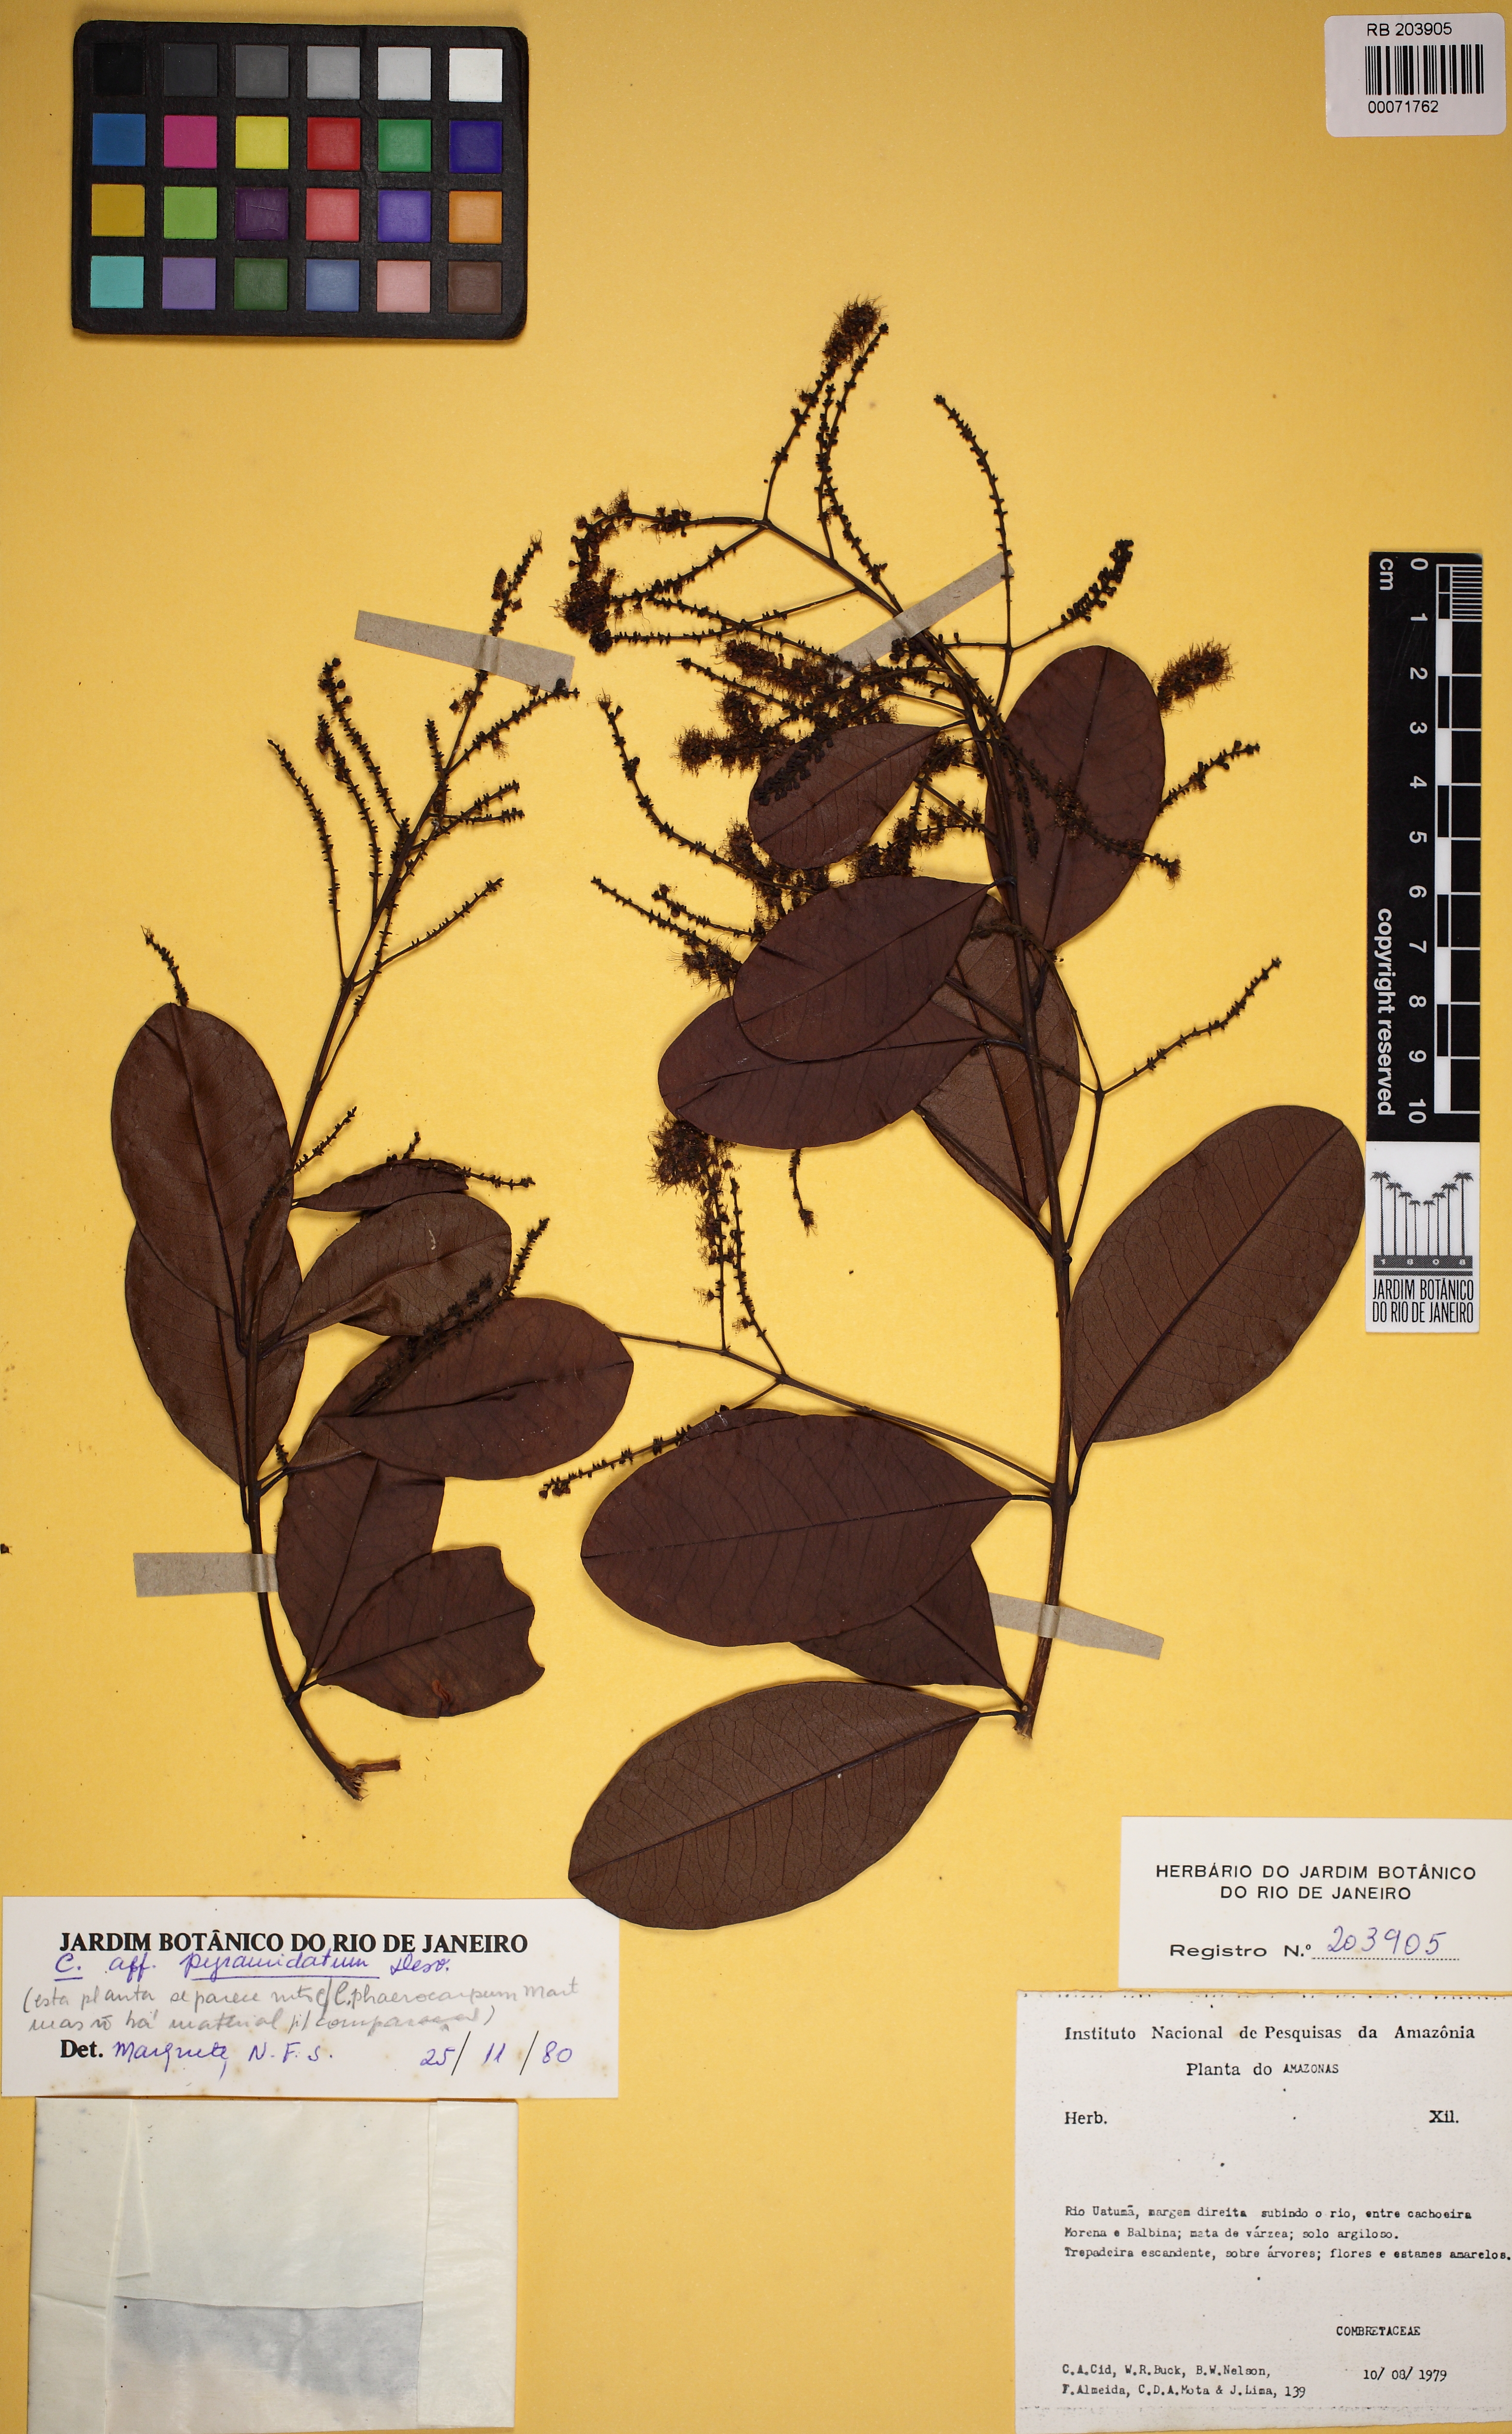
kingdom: Plantae
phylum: Tracheophyta
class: Magnoliopsida
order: Myrtales
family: Combretaceae
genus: Combretum
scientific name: Combretum pyramidatum
